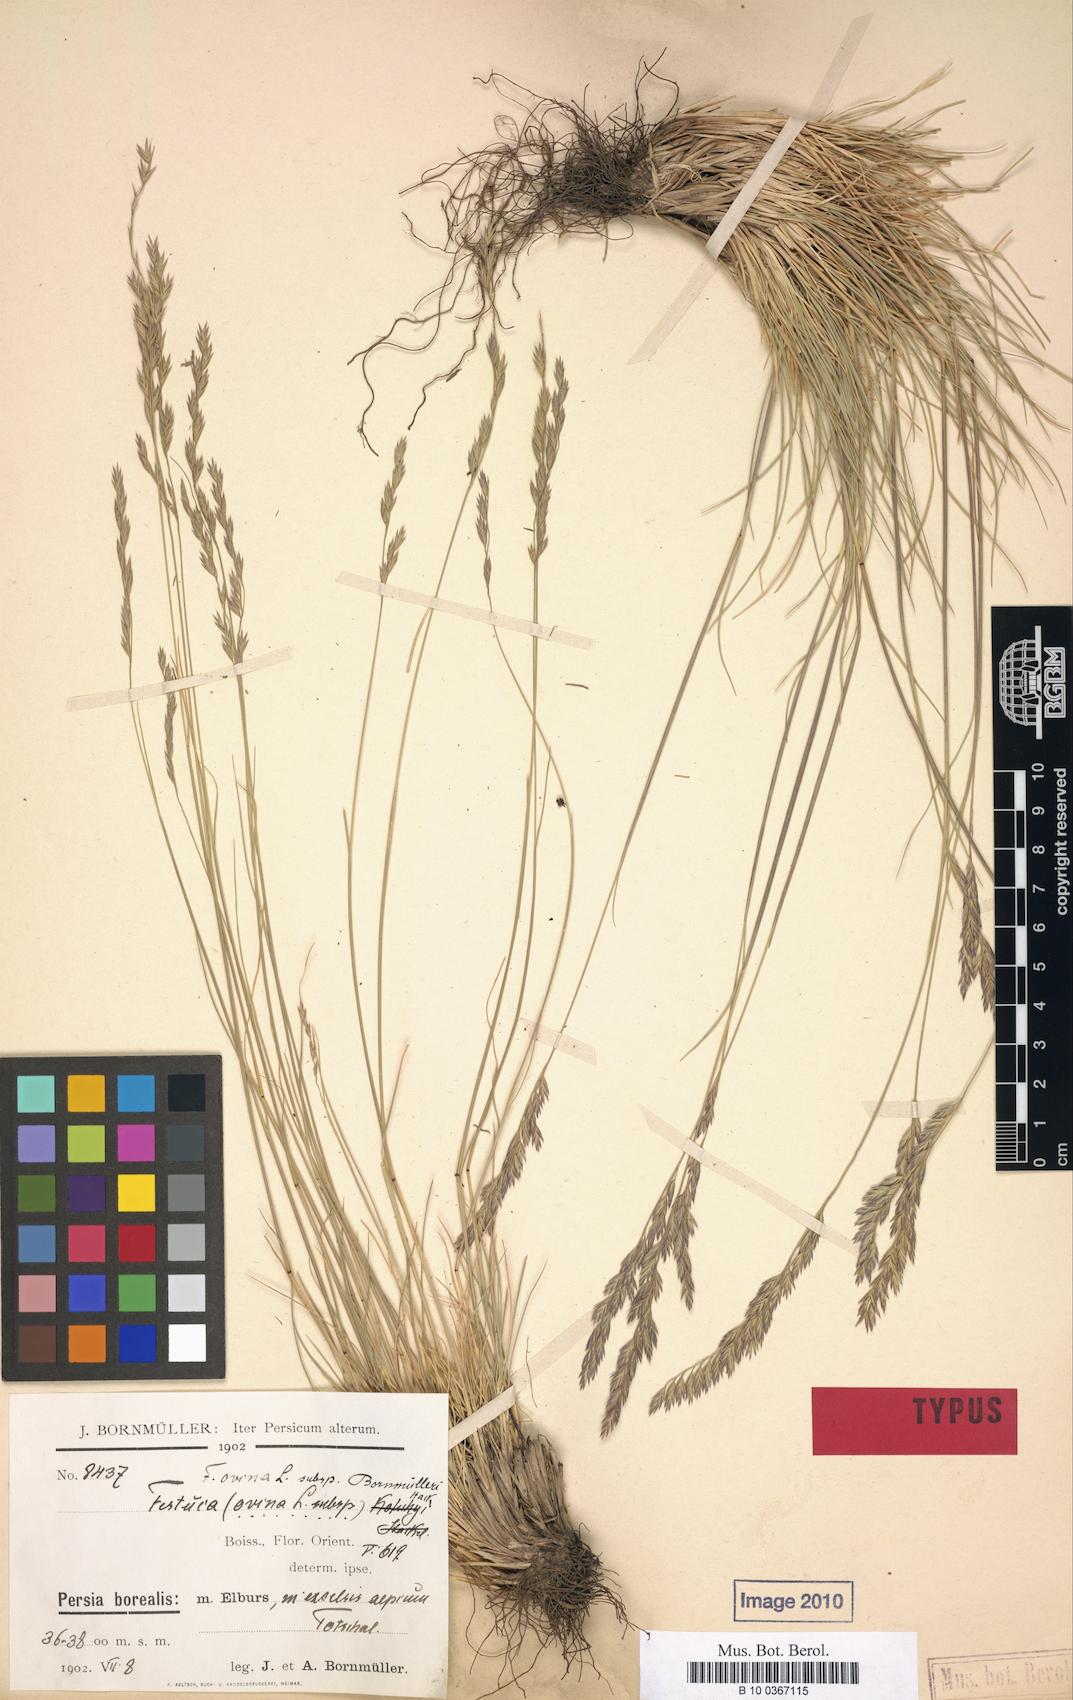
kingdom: Plantae
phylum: Tracheophyta
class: Liliopsida
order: Poales
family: Poaceae
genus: Festuca
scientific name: Festuca alaica
